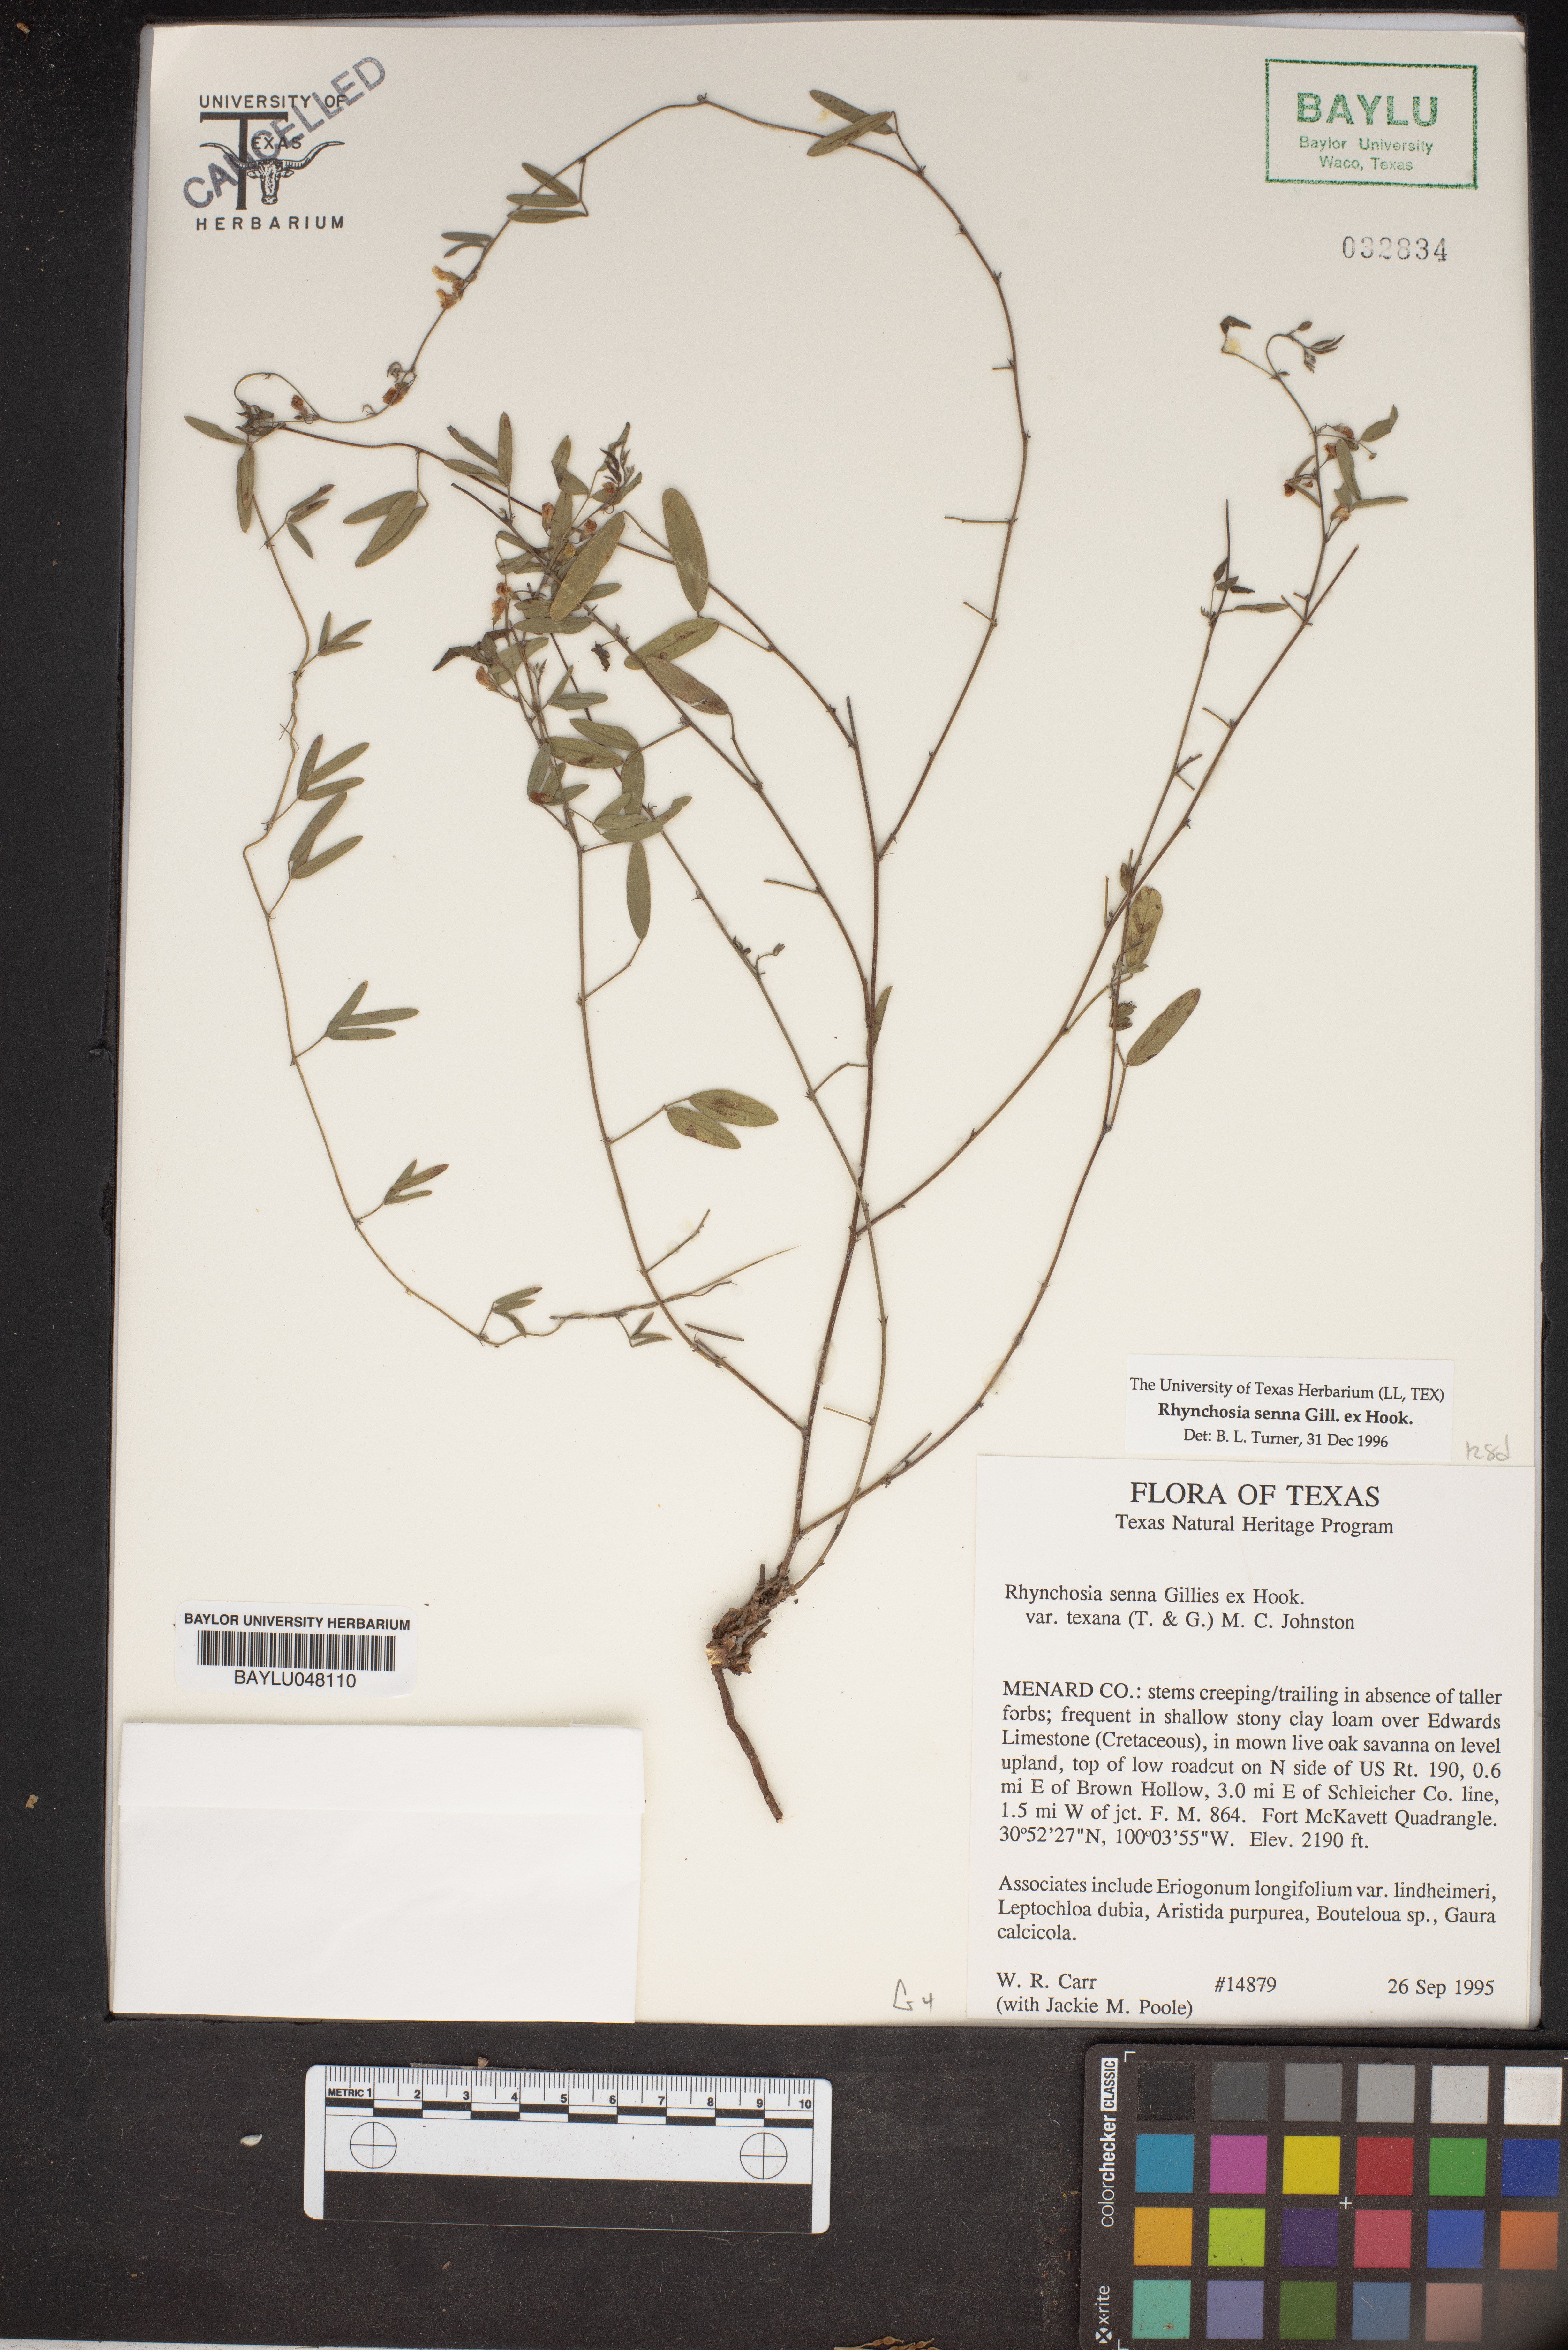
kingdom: Plantae
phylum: Tracheophyta
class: Magnoliopsida
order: Fabales
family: Fabaceae
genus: Rhynchosia
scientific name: Rhynchosia senna
